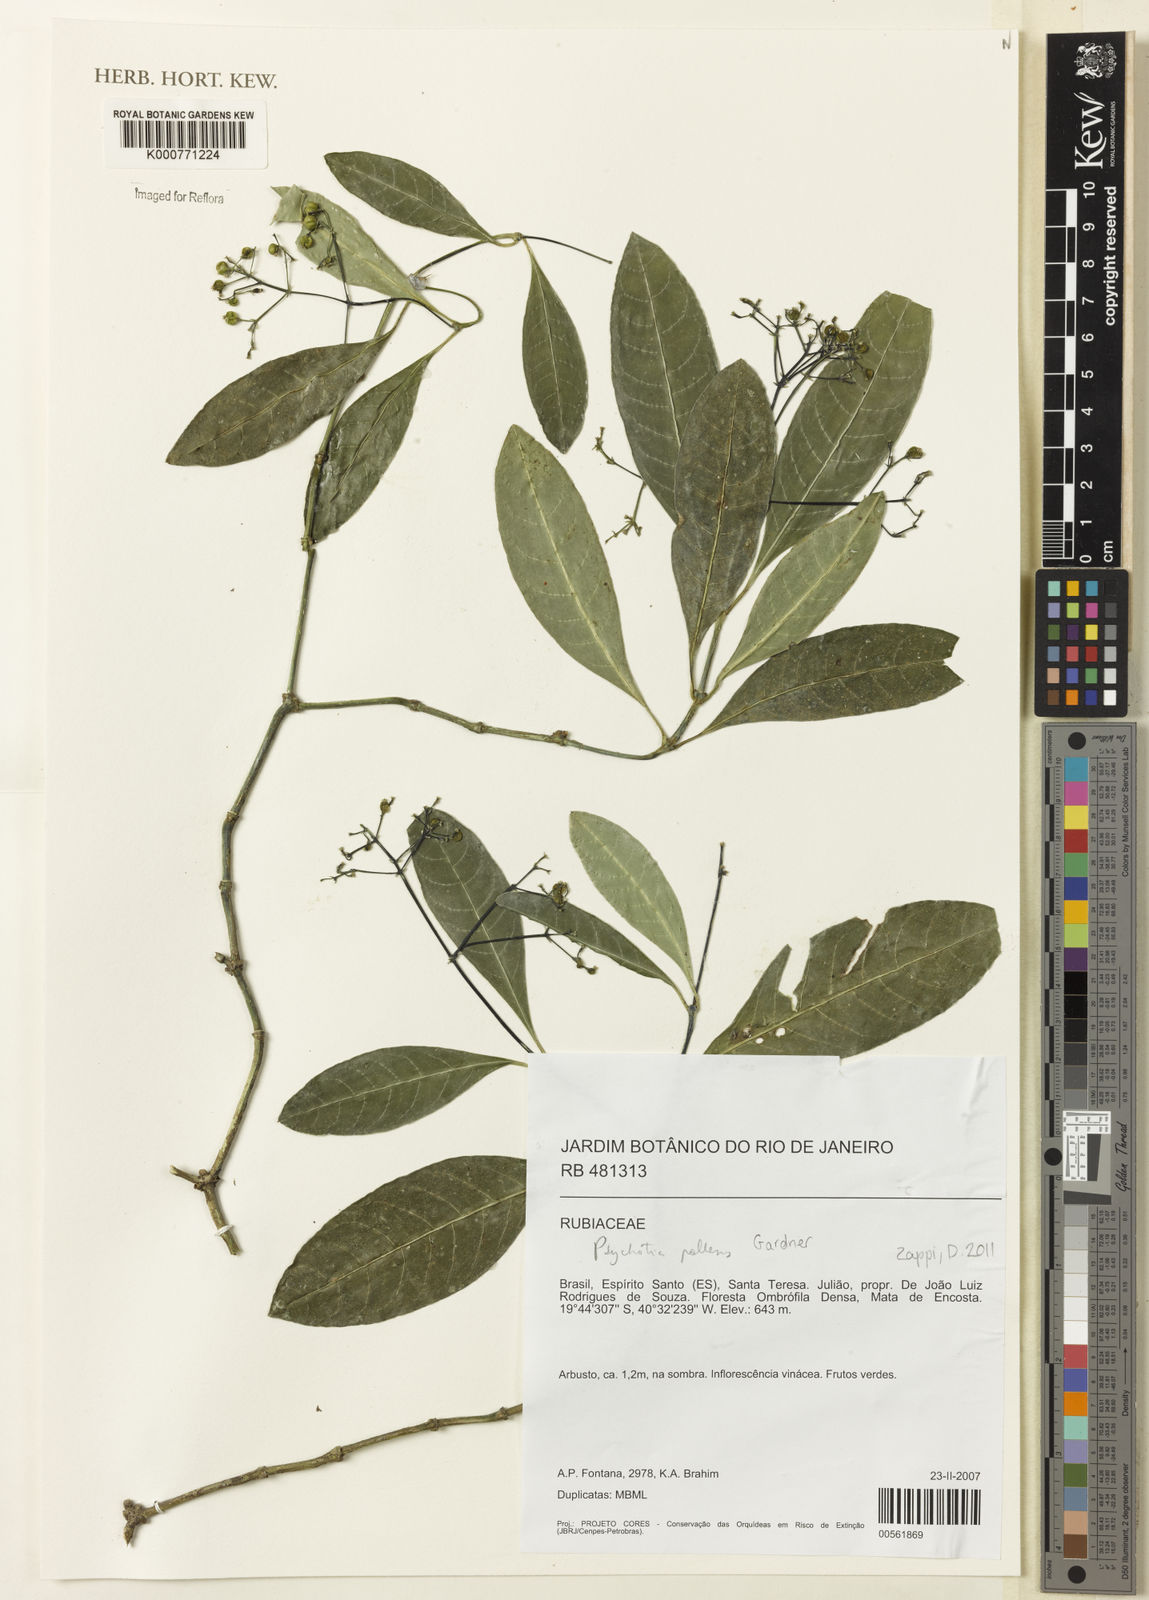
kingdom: Plantae
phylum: Tracheophyta
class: Magnoliopsida
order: Gentianales
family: Rubiaceae
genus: Psychotria
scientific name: Psychotria pallens
